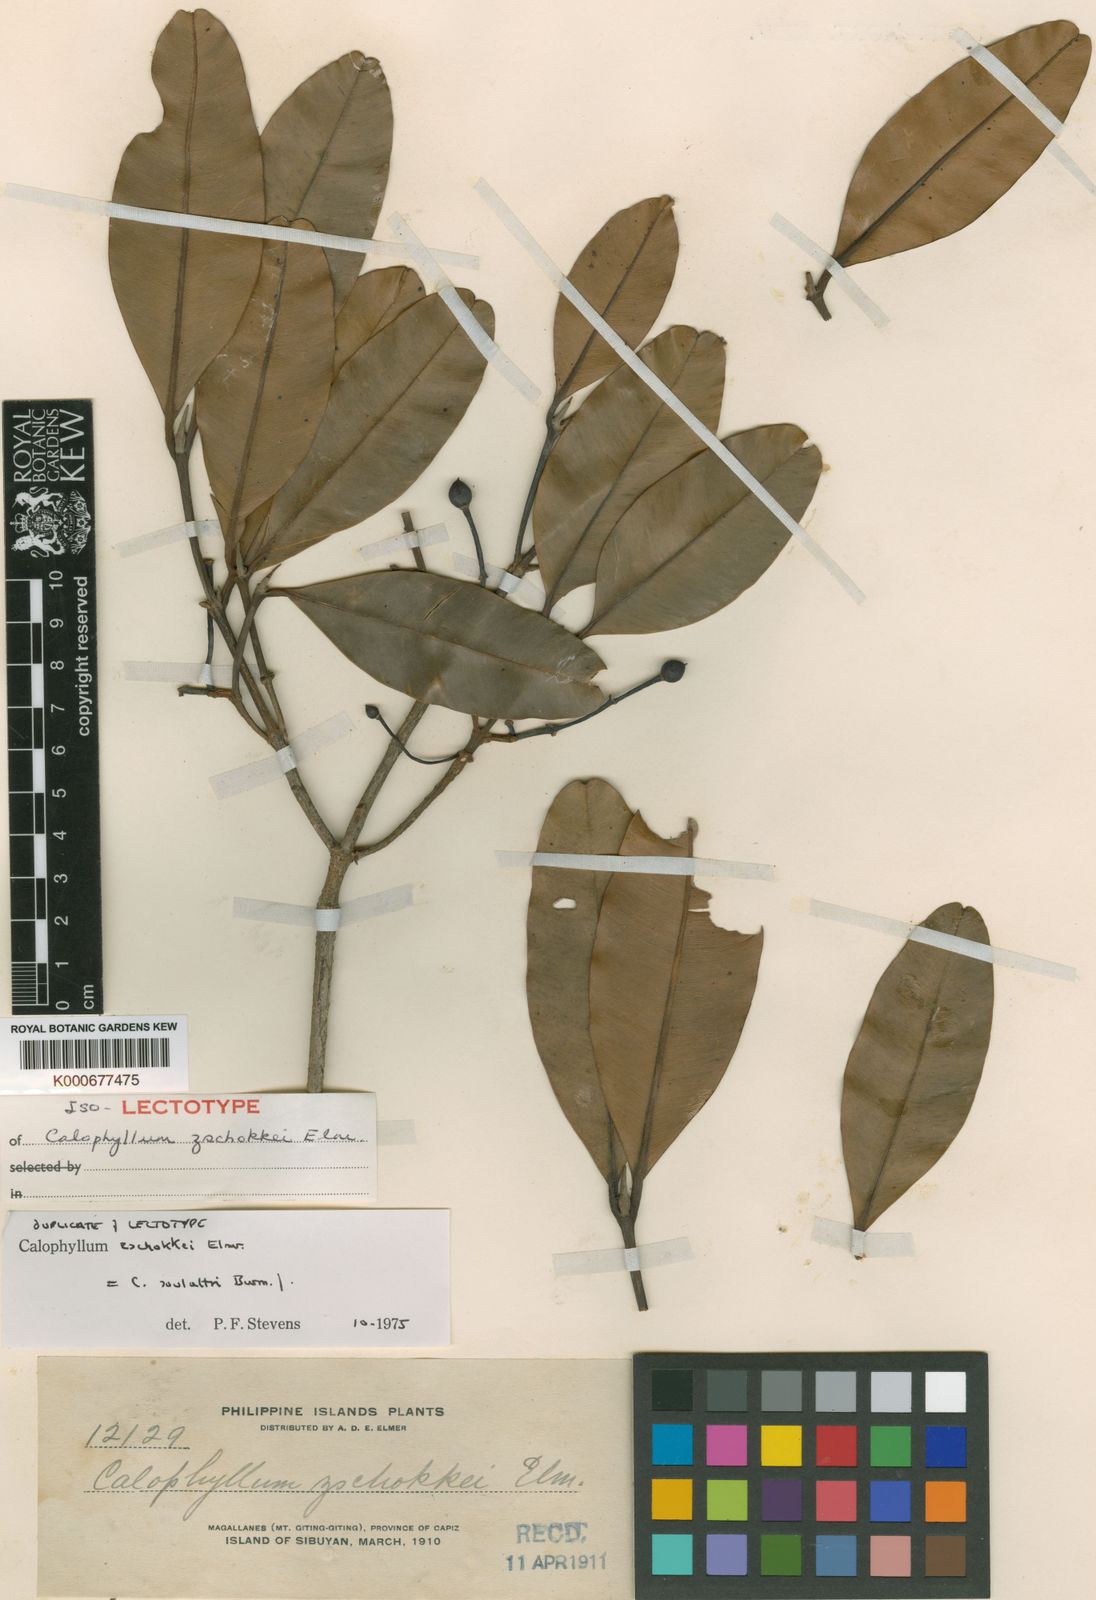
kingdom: Plantae
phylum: Tracheophyta
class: Magnoliopsida
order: Malpighiales
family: Calophyllaceae
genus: Calophyllum
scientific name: Calophyllum soulattri
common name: Bitangoor boonot
